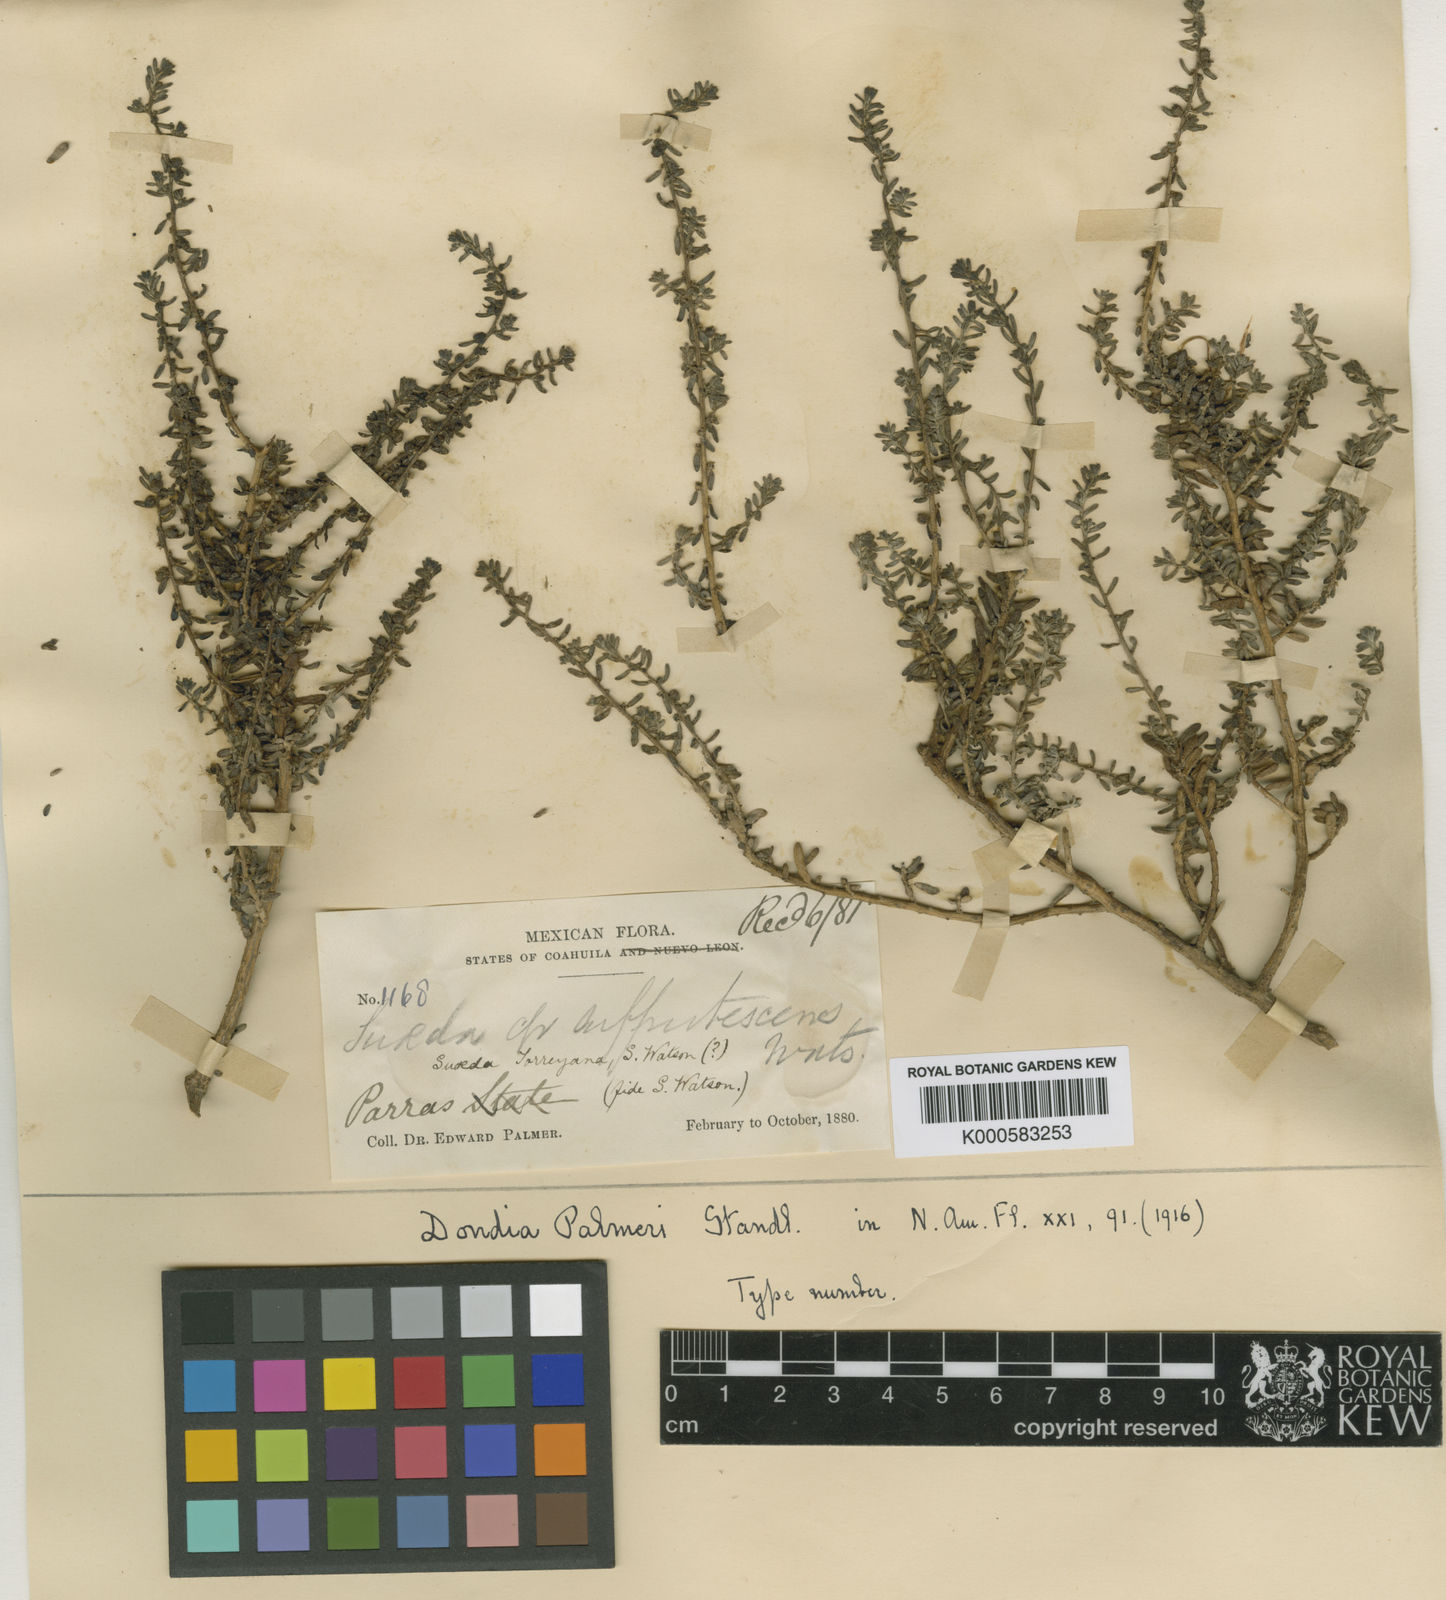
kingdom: Plantae
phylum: Tracheophyta
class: Magnoliopsida
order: Caryophyllales
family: Amaranthaceae
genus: Suaeda
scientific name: Suaeda palmeri
